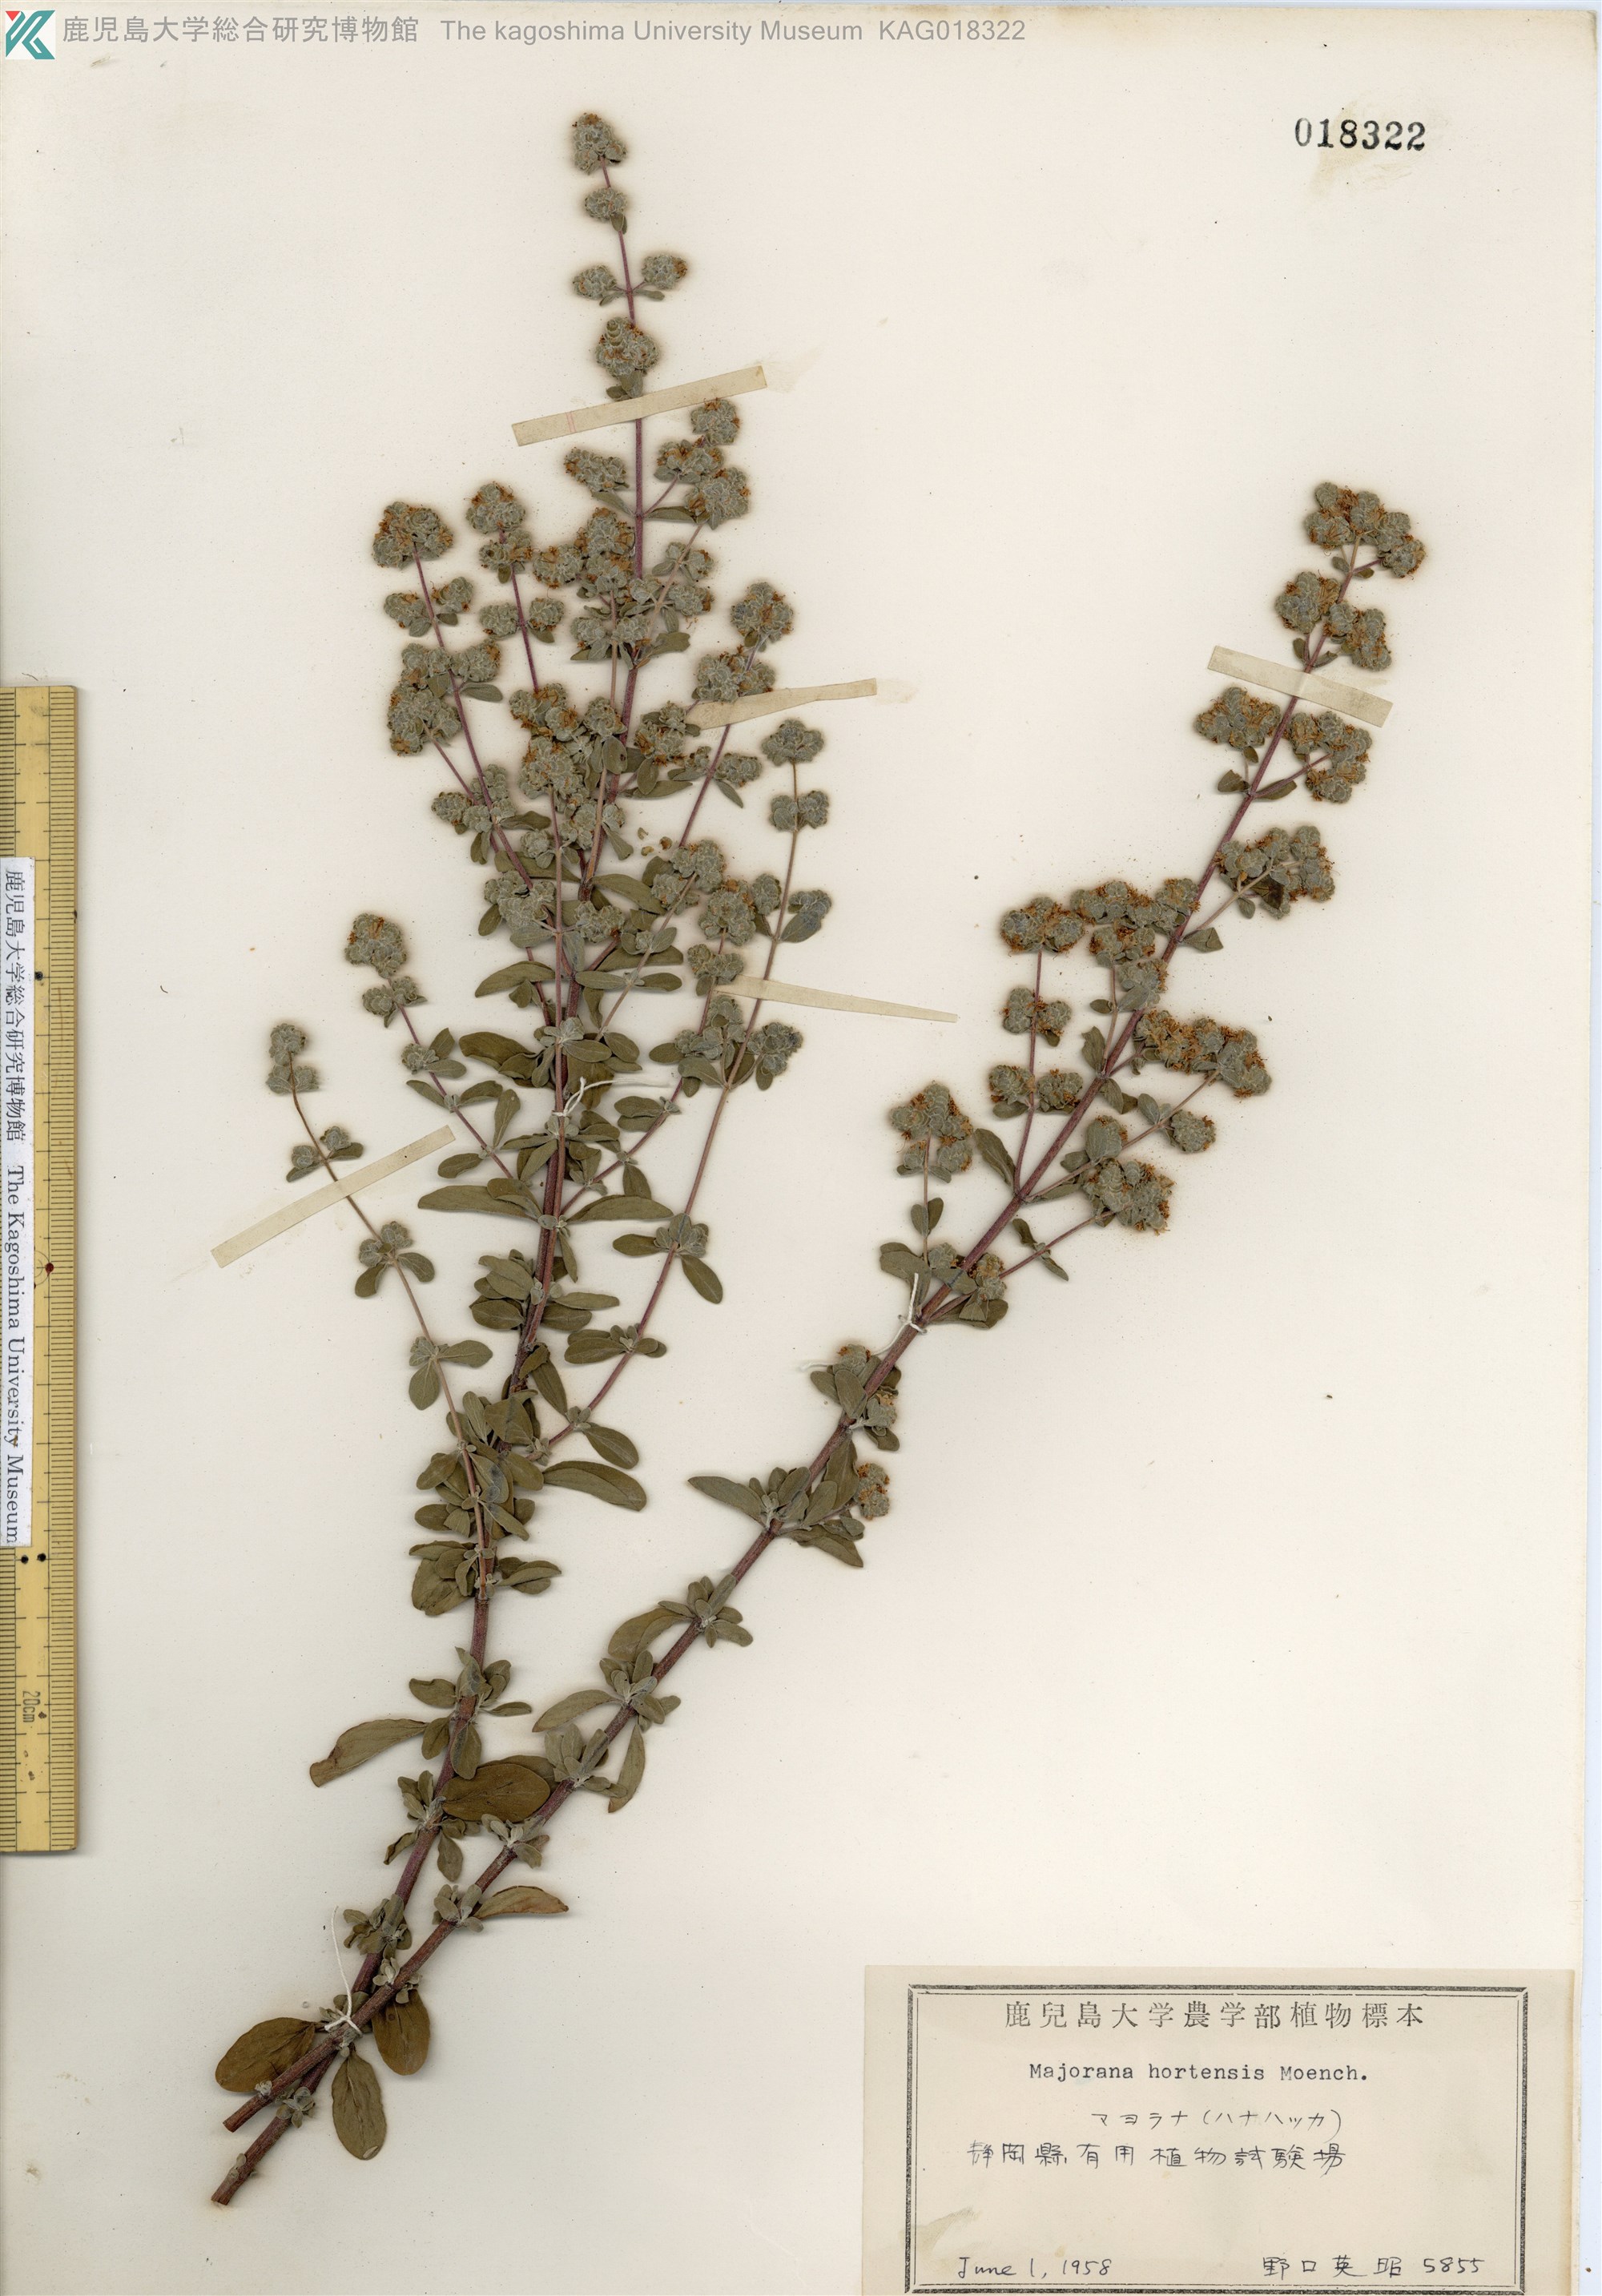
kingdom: Plantae
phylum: Tracheophyta
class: Magnoliopsida
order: Lamiales
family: Lamiaceae
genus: Origanum
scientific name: Origanum majorana
